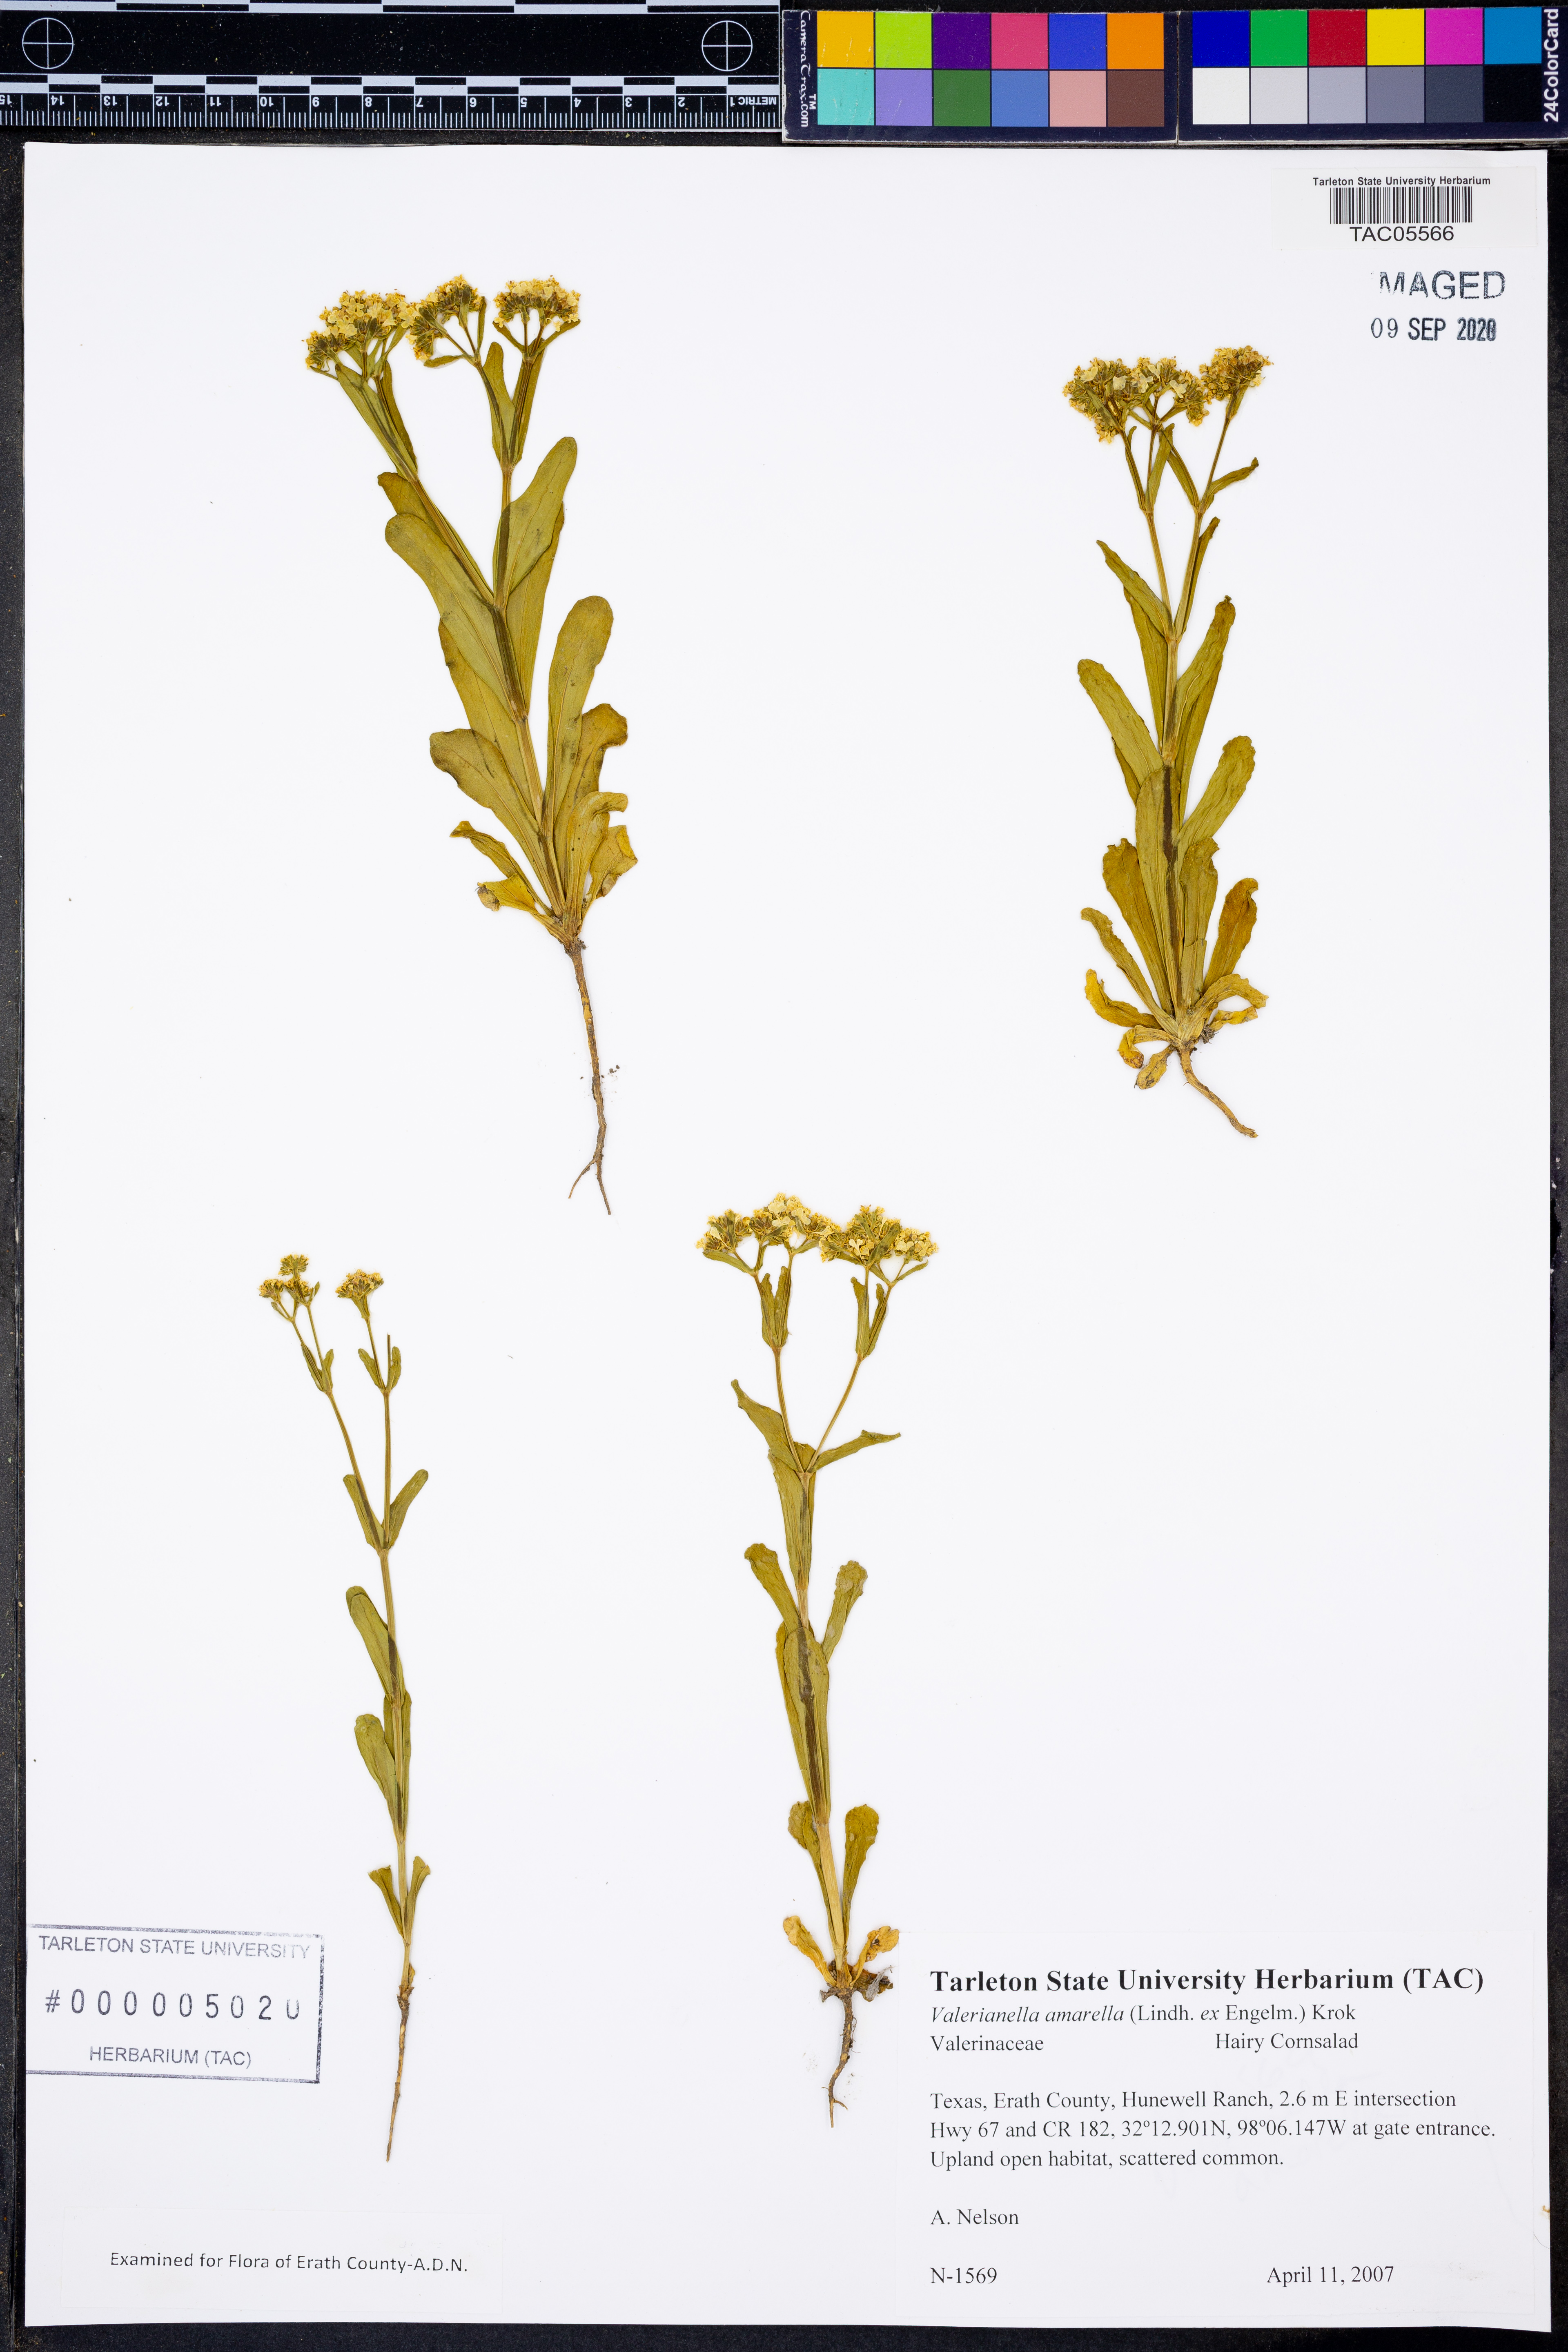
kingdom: Plantae
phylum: Tracheophyta
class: Magnoliopsida
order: Dipsacales
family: Caprifoliaceae
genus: Valerianella
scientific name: Valerianella amarella
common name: Hariy cornsalad
